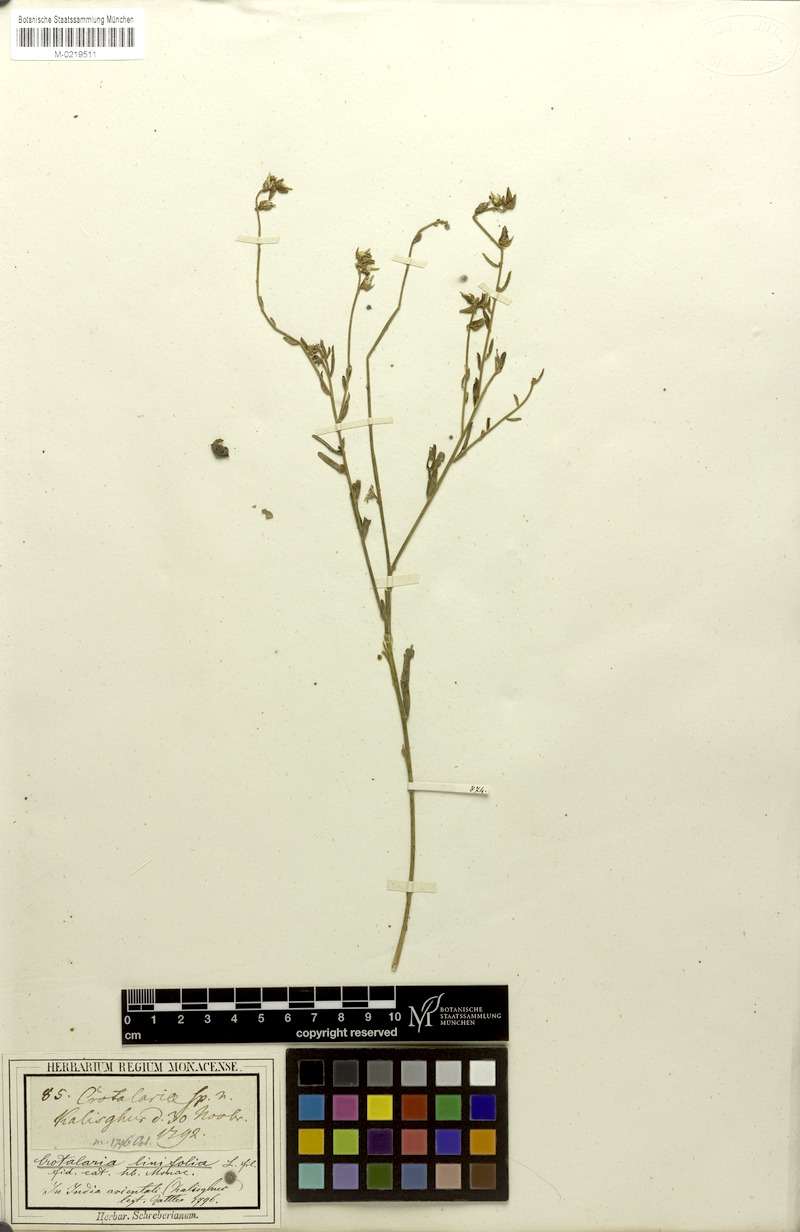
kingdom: Plantae
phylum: Tracheophyta
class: Magnoliopsida
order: Fabales
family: Fabaceae
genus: Crotalaria
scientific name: Crotalaria linifolia
